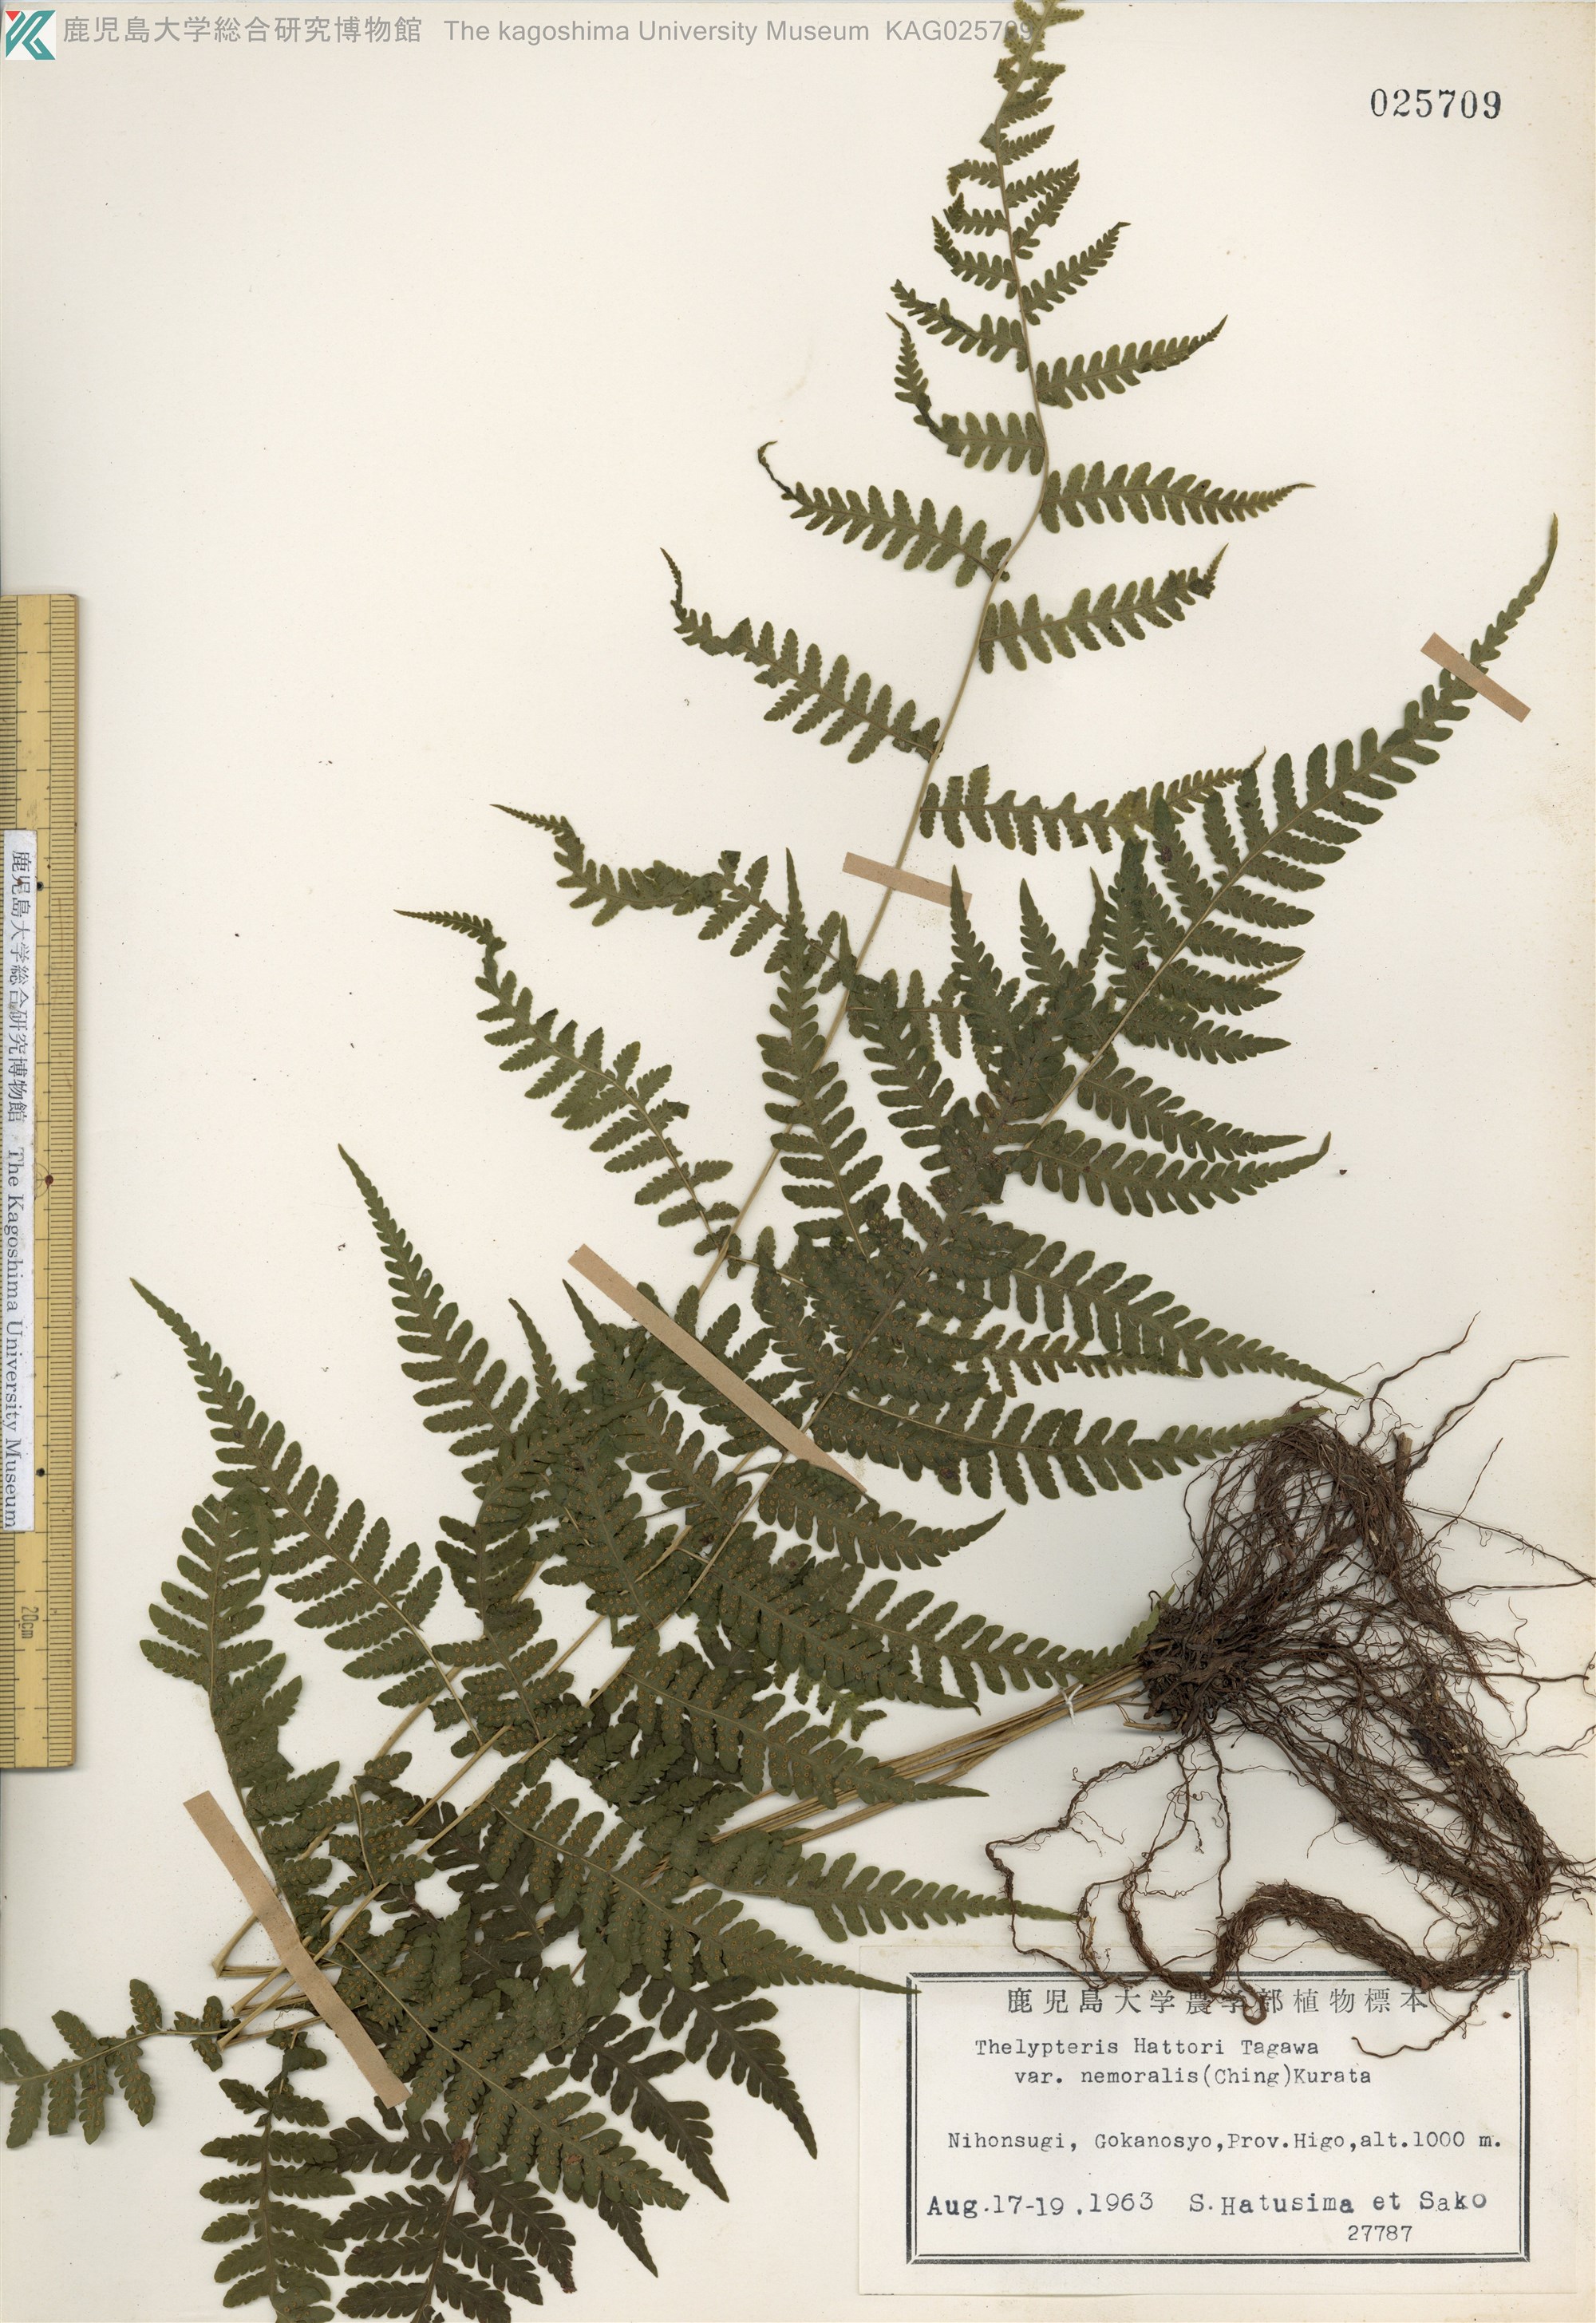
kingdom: Plantae
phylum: Tracheophyta
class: Polypodiopsida
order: Polypodiales
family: Thelypteridaceae
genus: Metathelypteris
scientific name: Metathelypteris hattori
